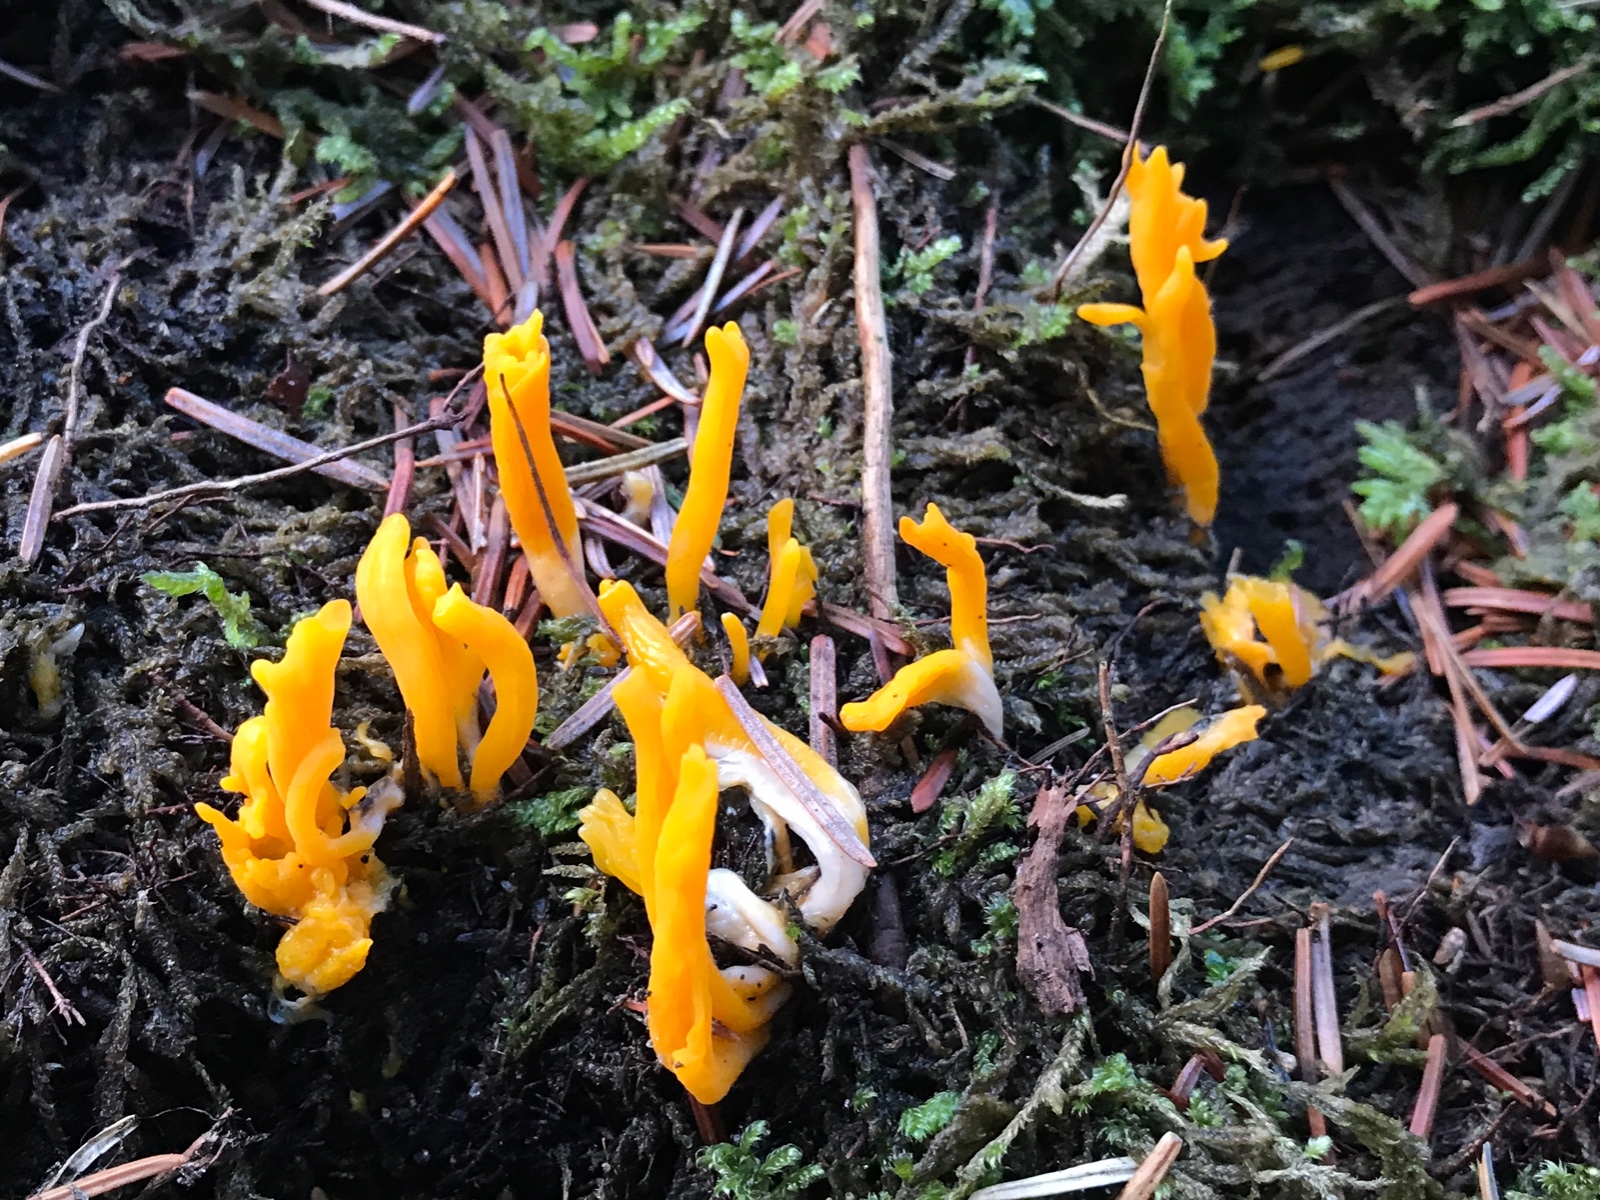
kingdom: Fungi
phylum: Basidiomycota
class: Dacrymycetes
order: Dacrymycetales
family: Dacrymycetaceae
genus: Calocera
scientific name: Calocera viscosa
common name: almindelig guldgaffel
